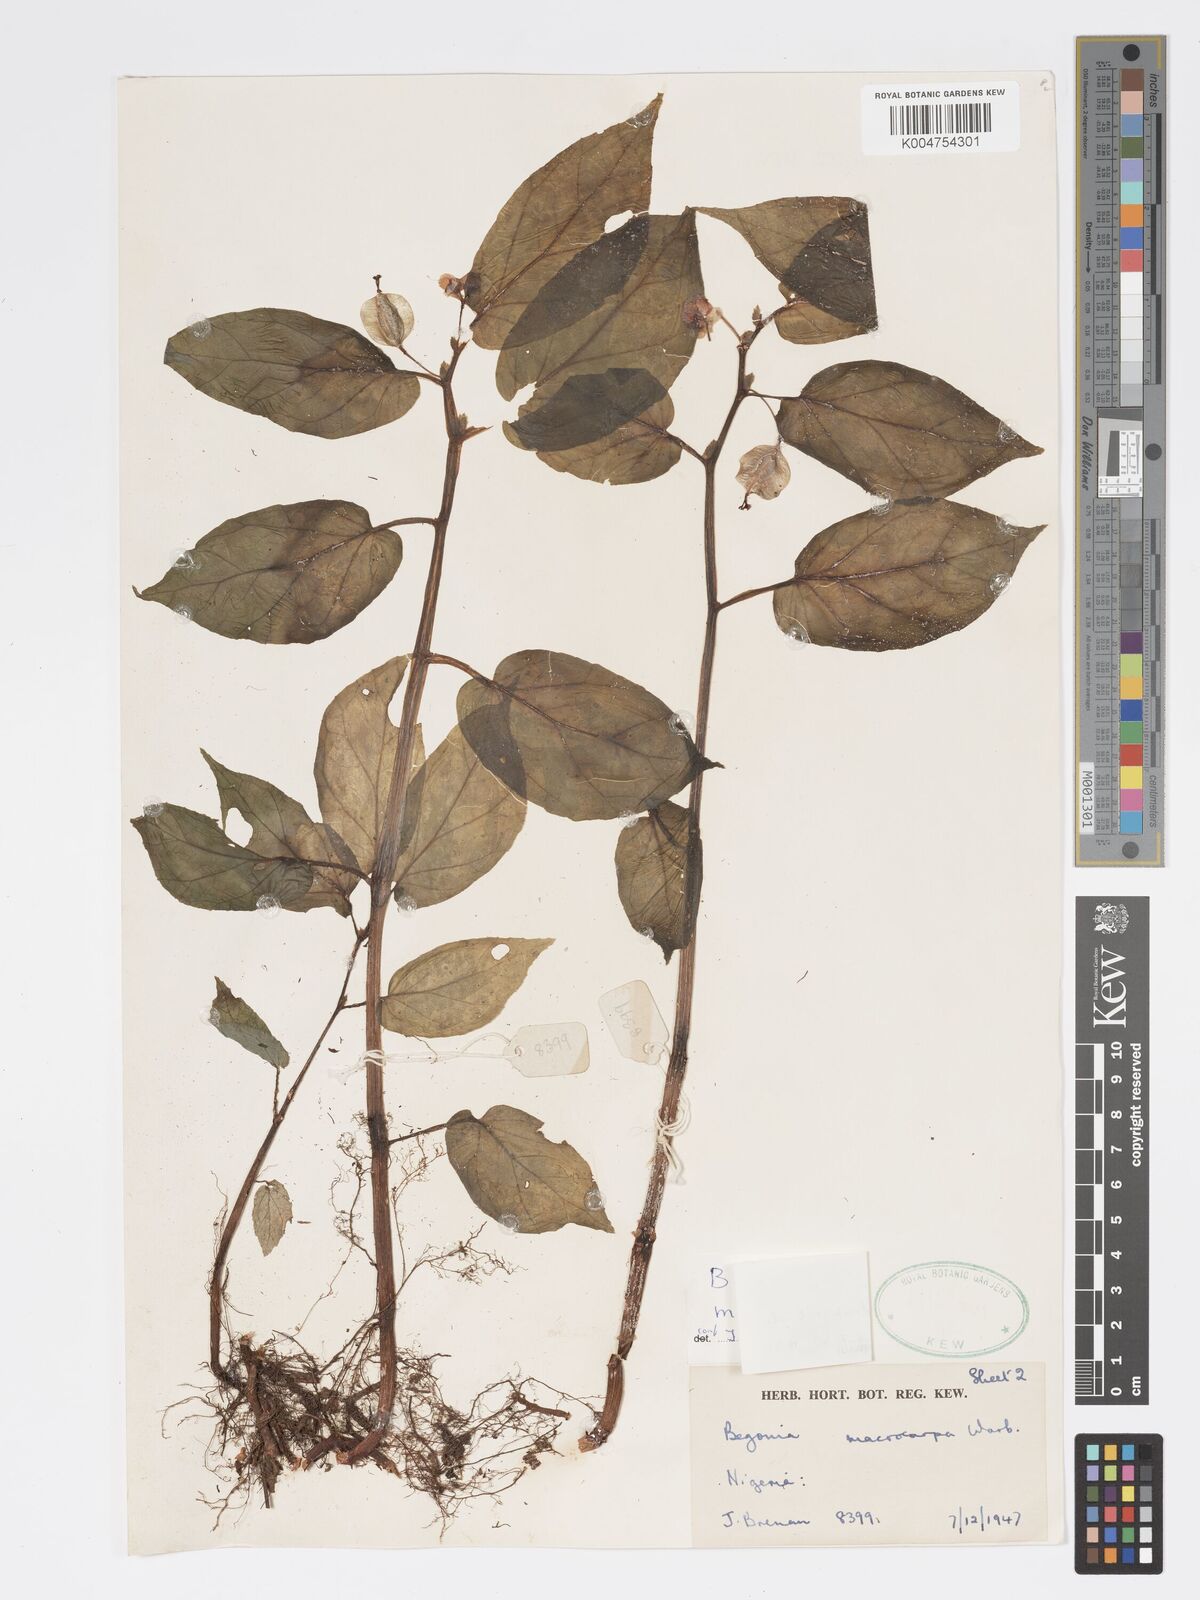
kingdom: Plantae
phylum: Tracheophyta
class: Magnoliopsida
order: Cucurbitales
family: Begoniaceae
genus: Begonia
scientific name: Begonia macrocarpa
